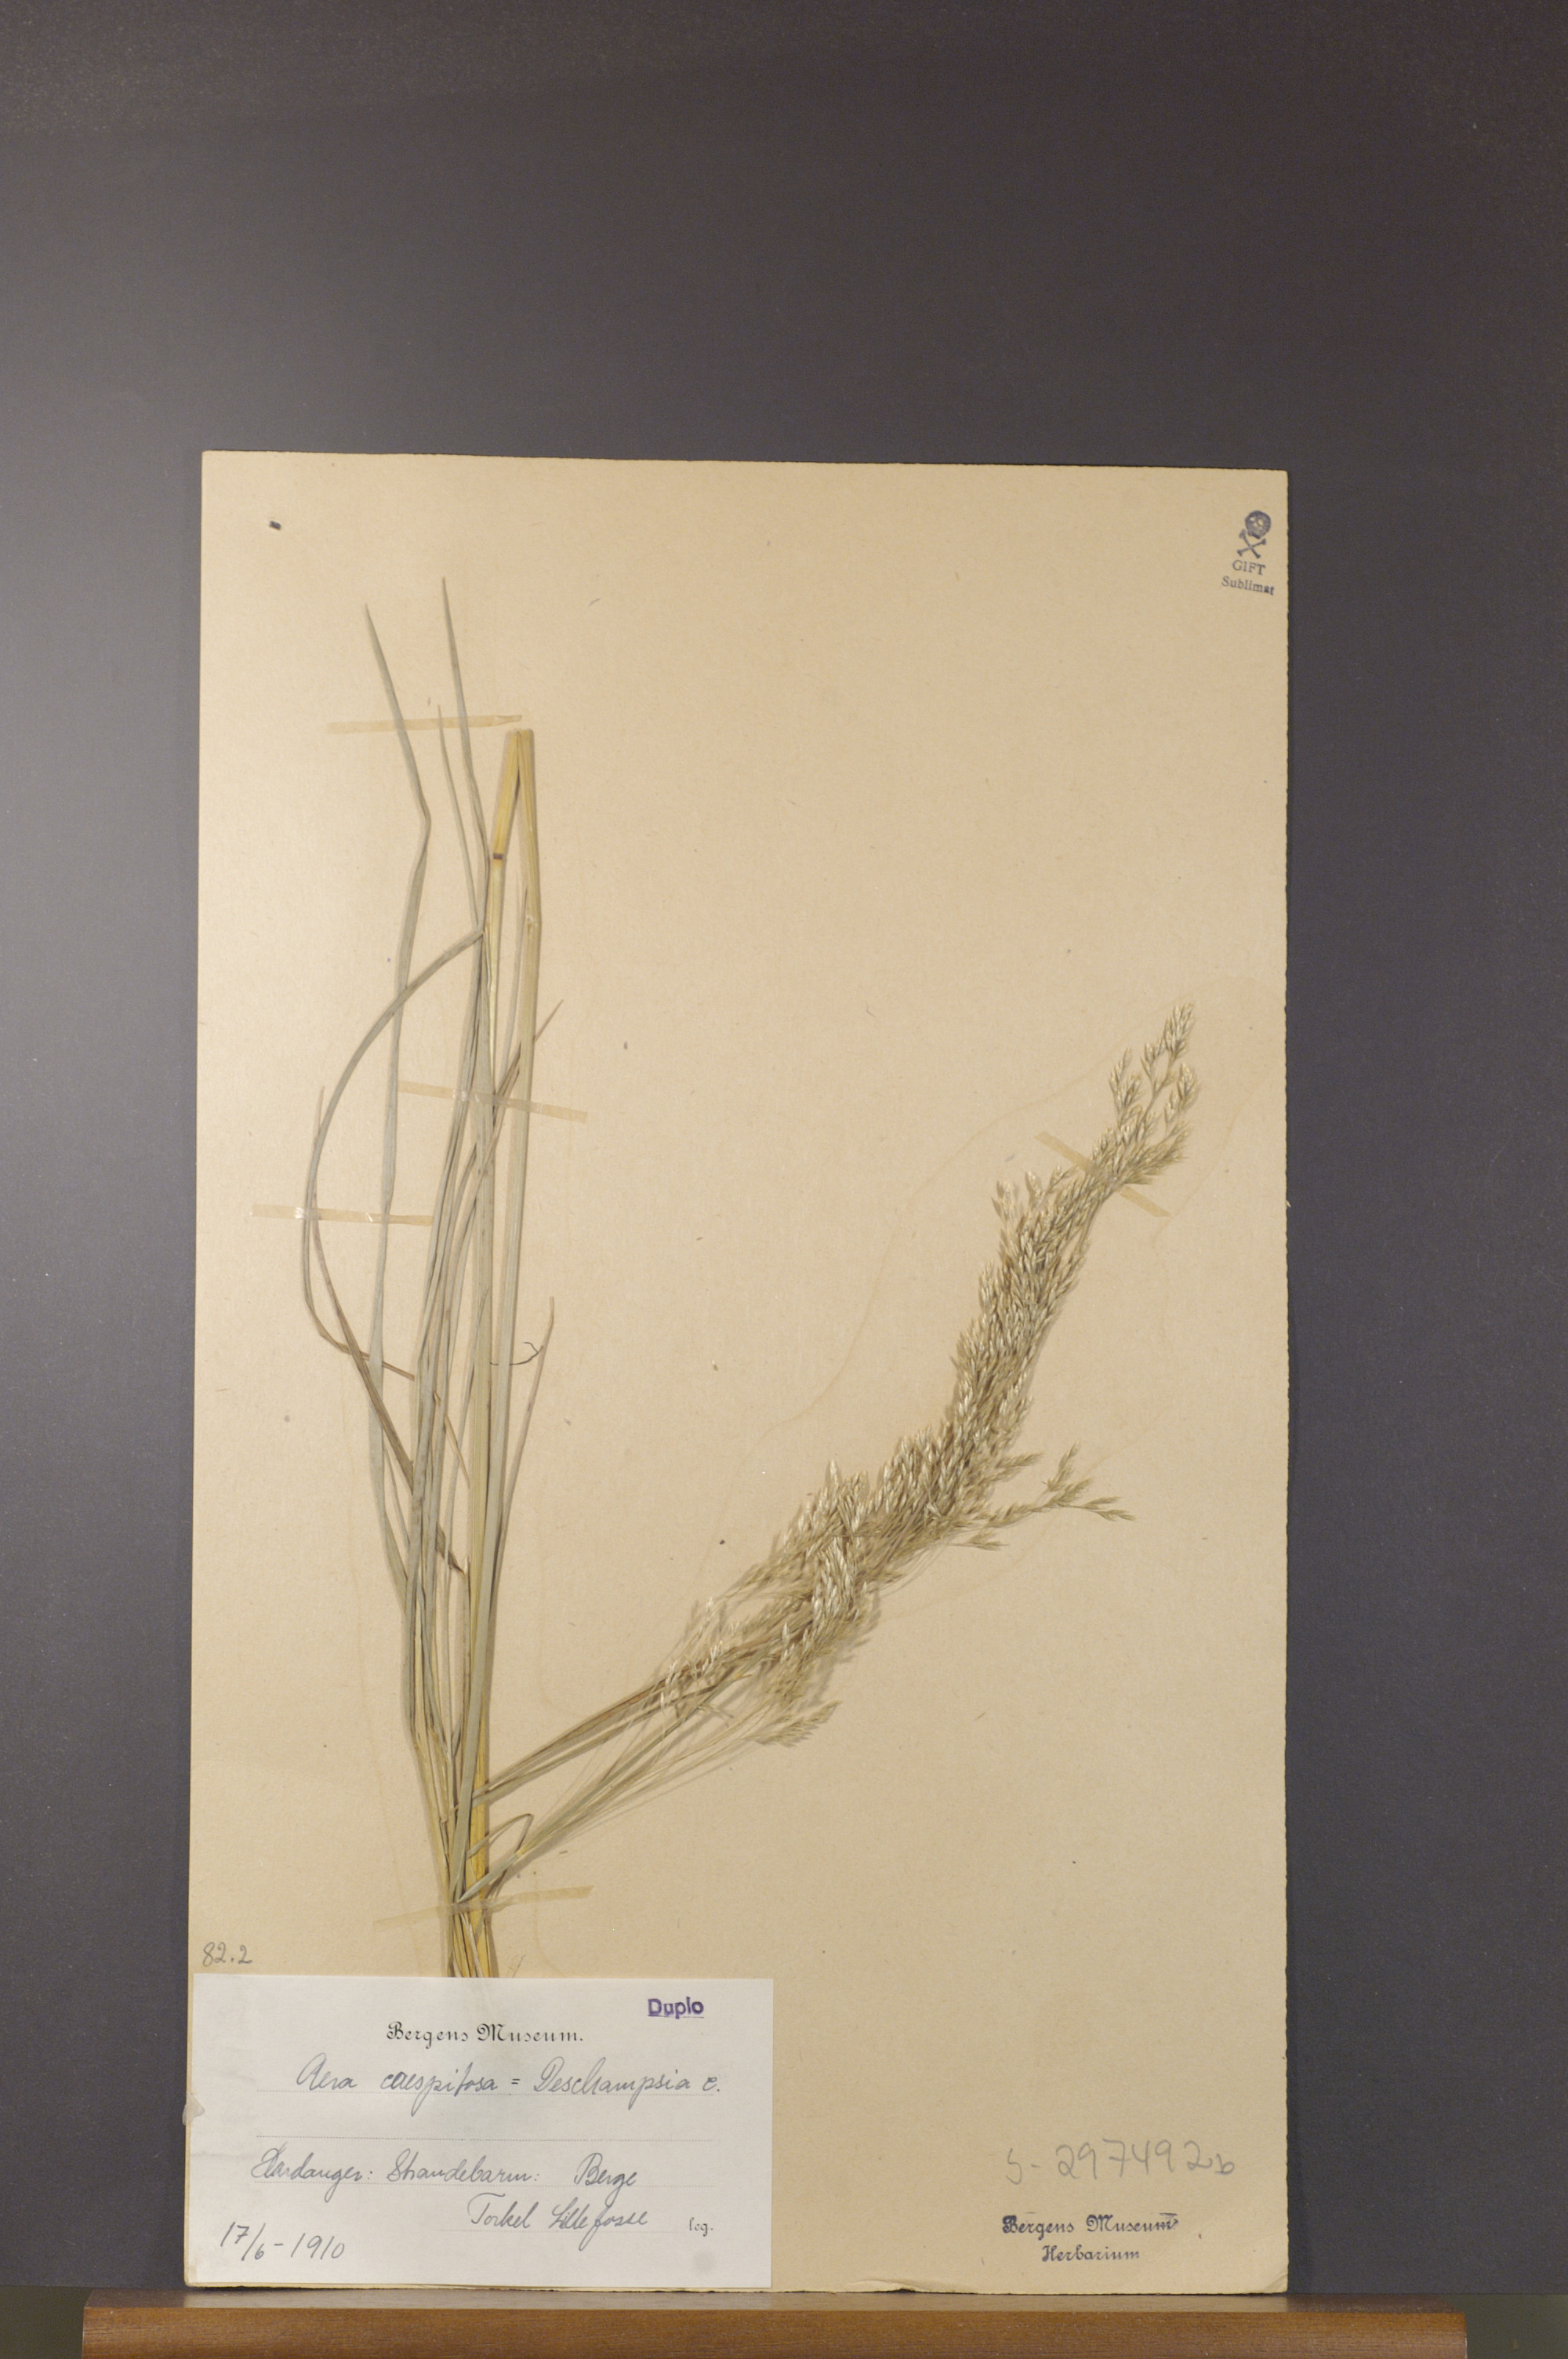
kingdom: Plantae
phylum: Tracheophyta
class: Liliopsida
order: Poales
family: Poaceae
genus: Deschampsia
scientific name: Deschampsia cespitosa
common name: Tufted hair-grass
